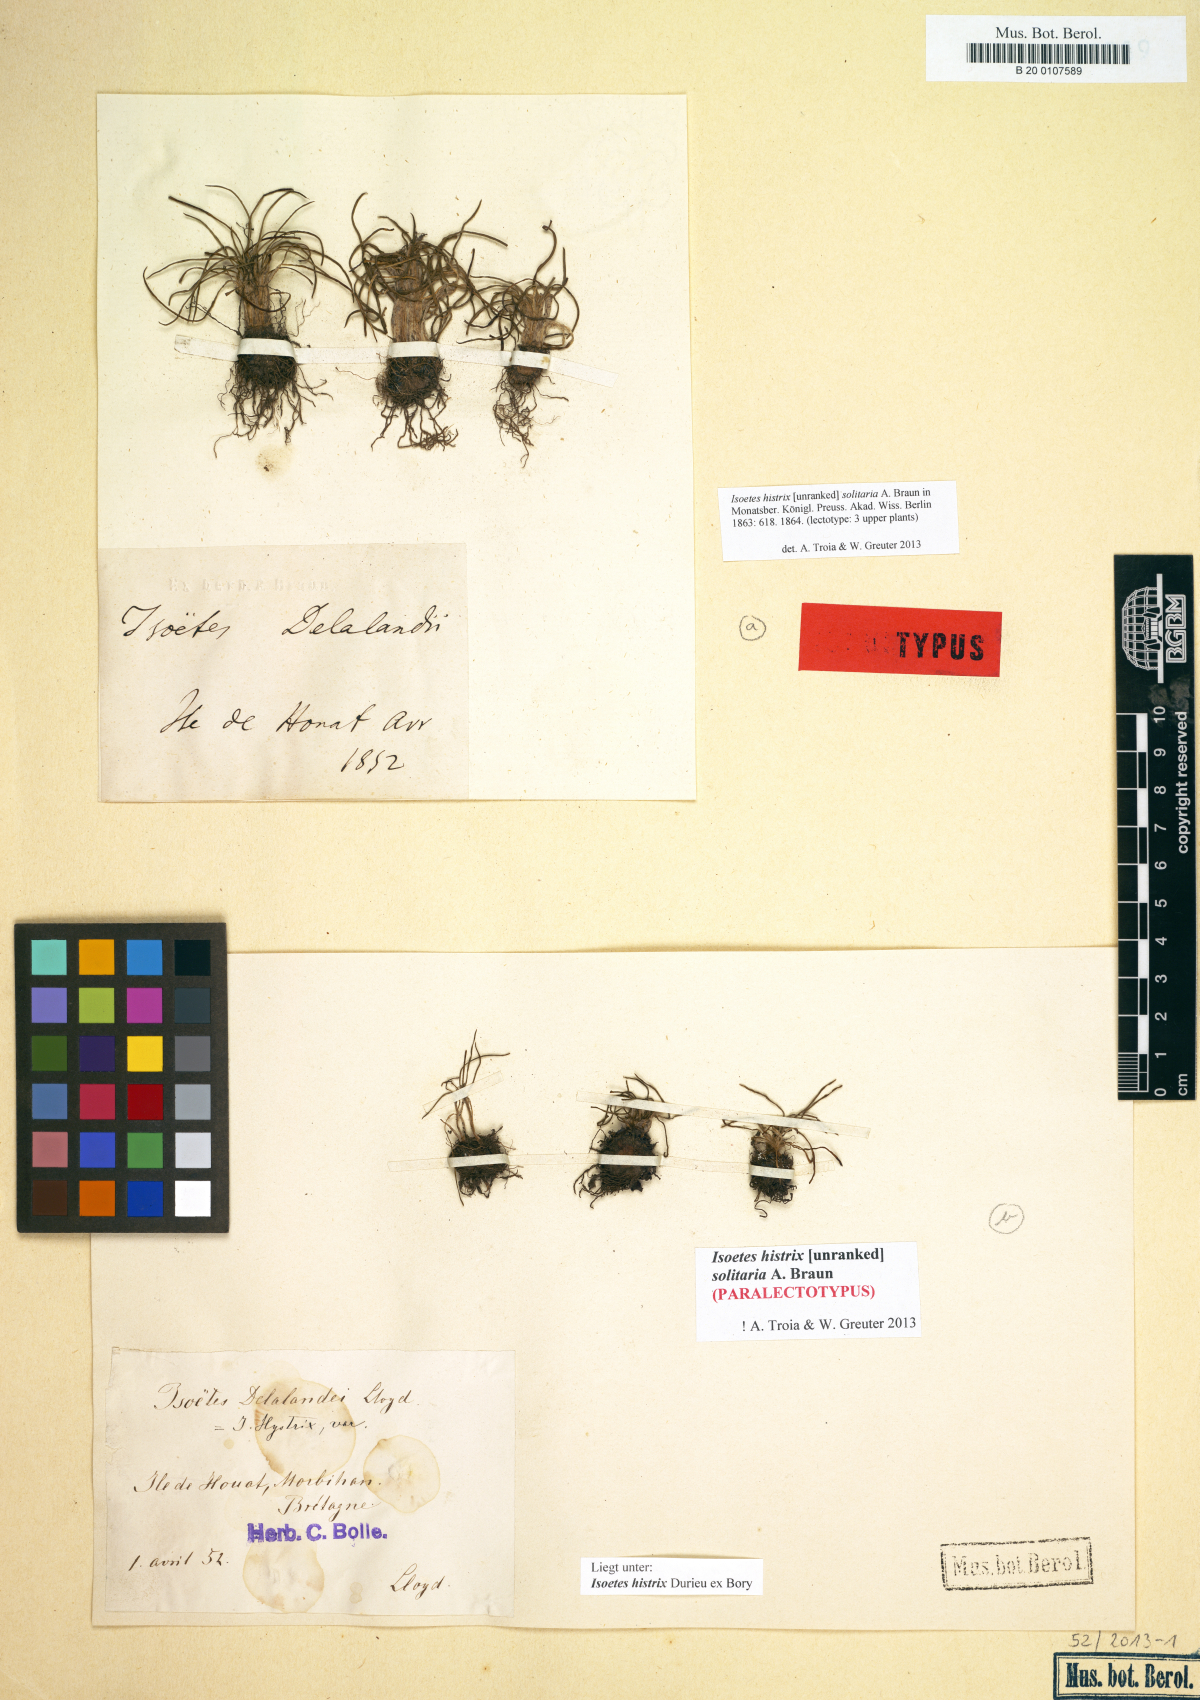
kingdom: Plantae
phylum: Tracheophyta
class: Lycopodiopsida
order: Isoetales
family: Isoetaceae
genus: Isoetes
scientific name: Isoetes histrix
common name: Land quillwort
